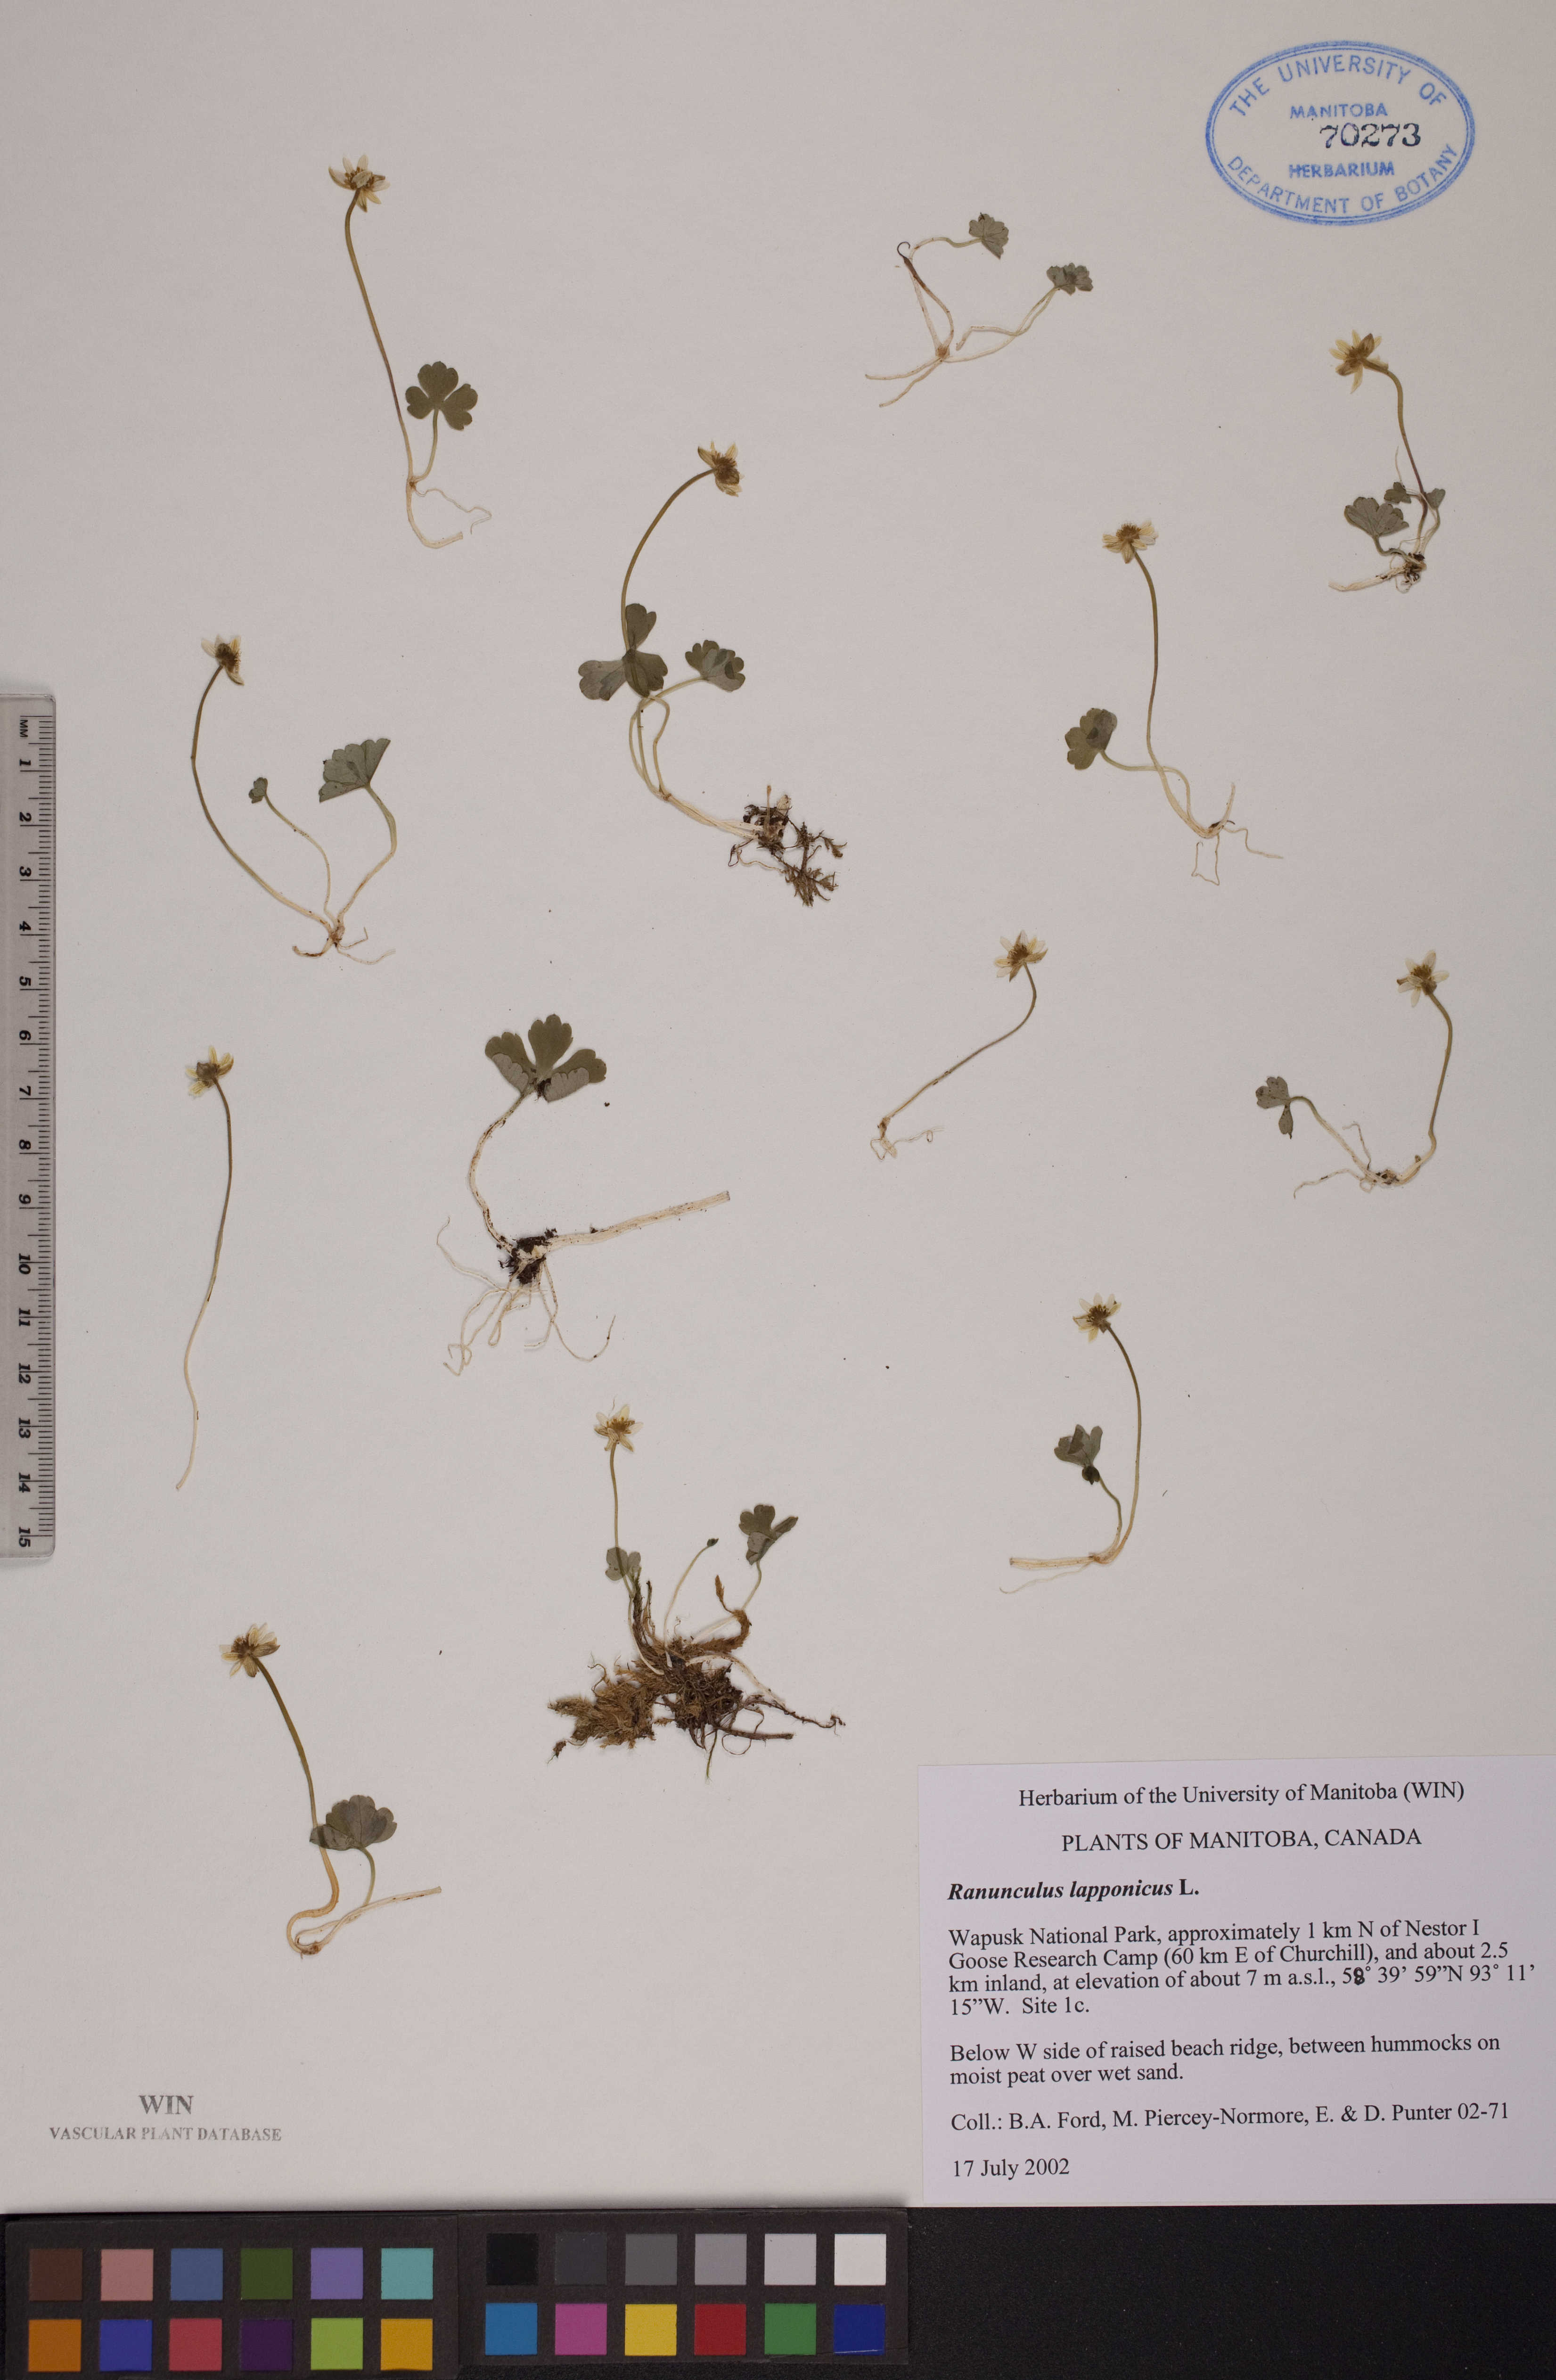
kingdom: Plantae
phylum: Tracheophyta
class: Magnoliopsida
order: Ranunculales
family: Ranunculaceae
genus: Coptidium
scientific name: Coptidium lapponicum
